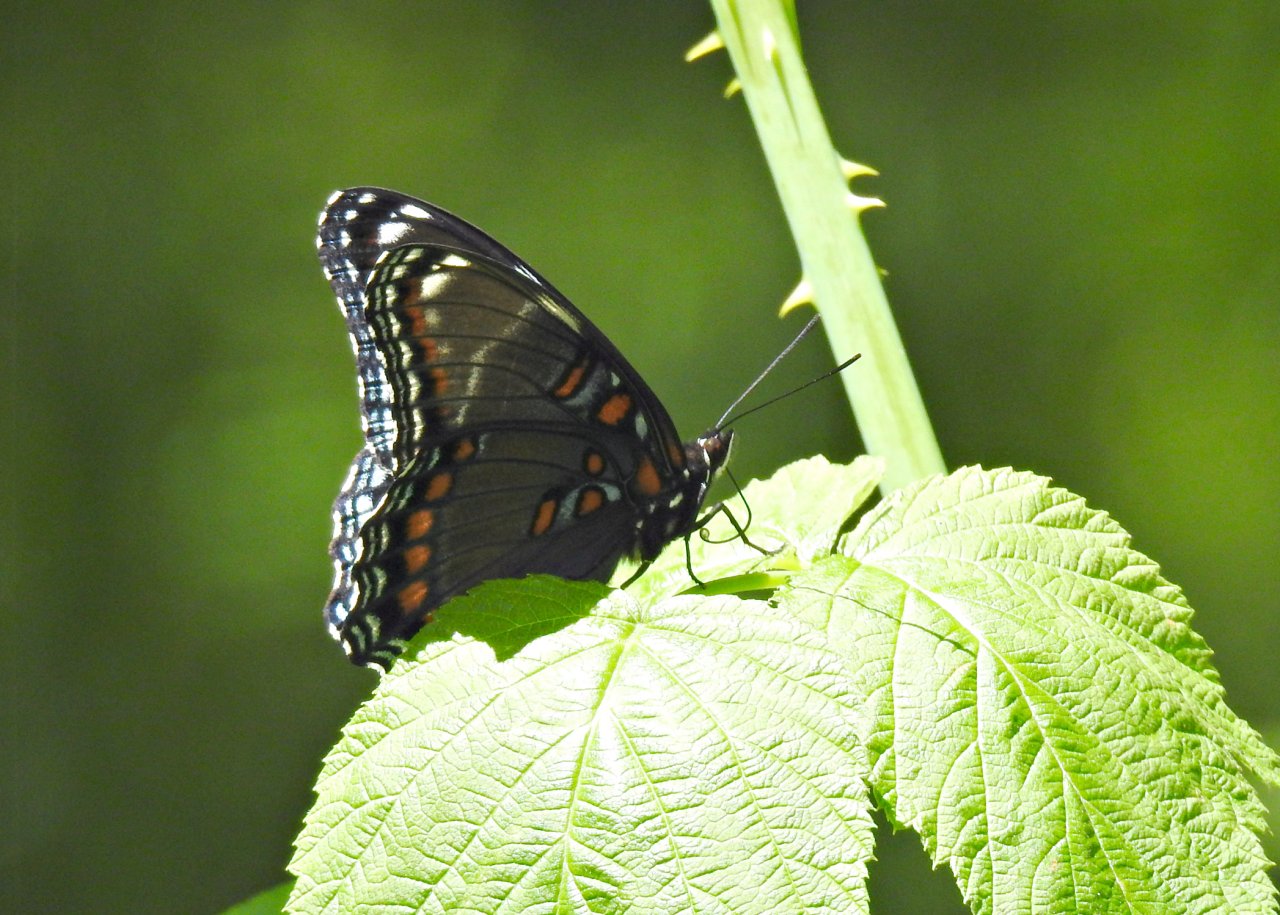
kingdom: Animalia
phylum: Arthropoda
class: Insecta
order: Lepidoptera
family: Nymphalidae
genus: Limenitis
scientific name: Limenitis astyanax
